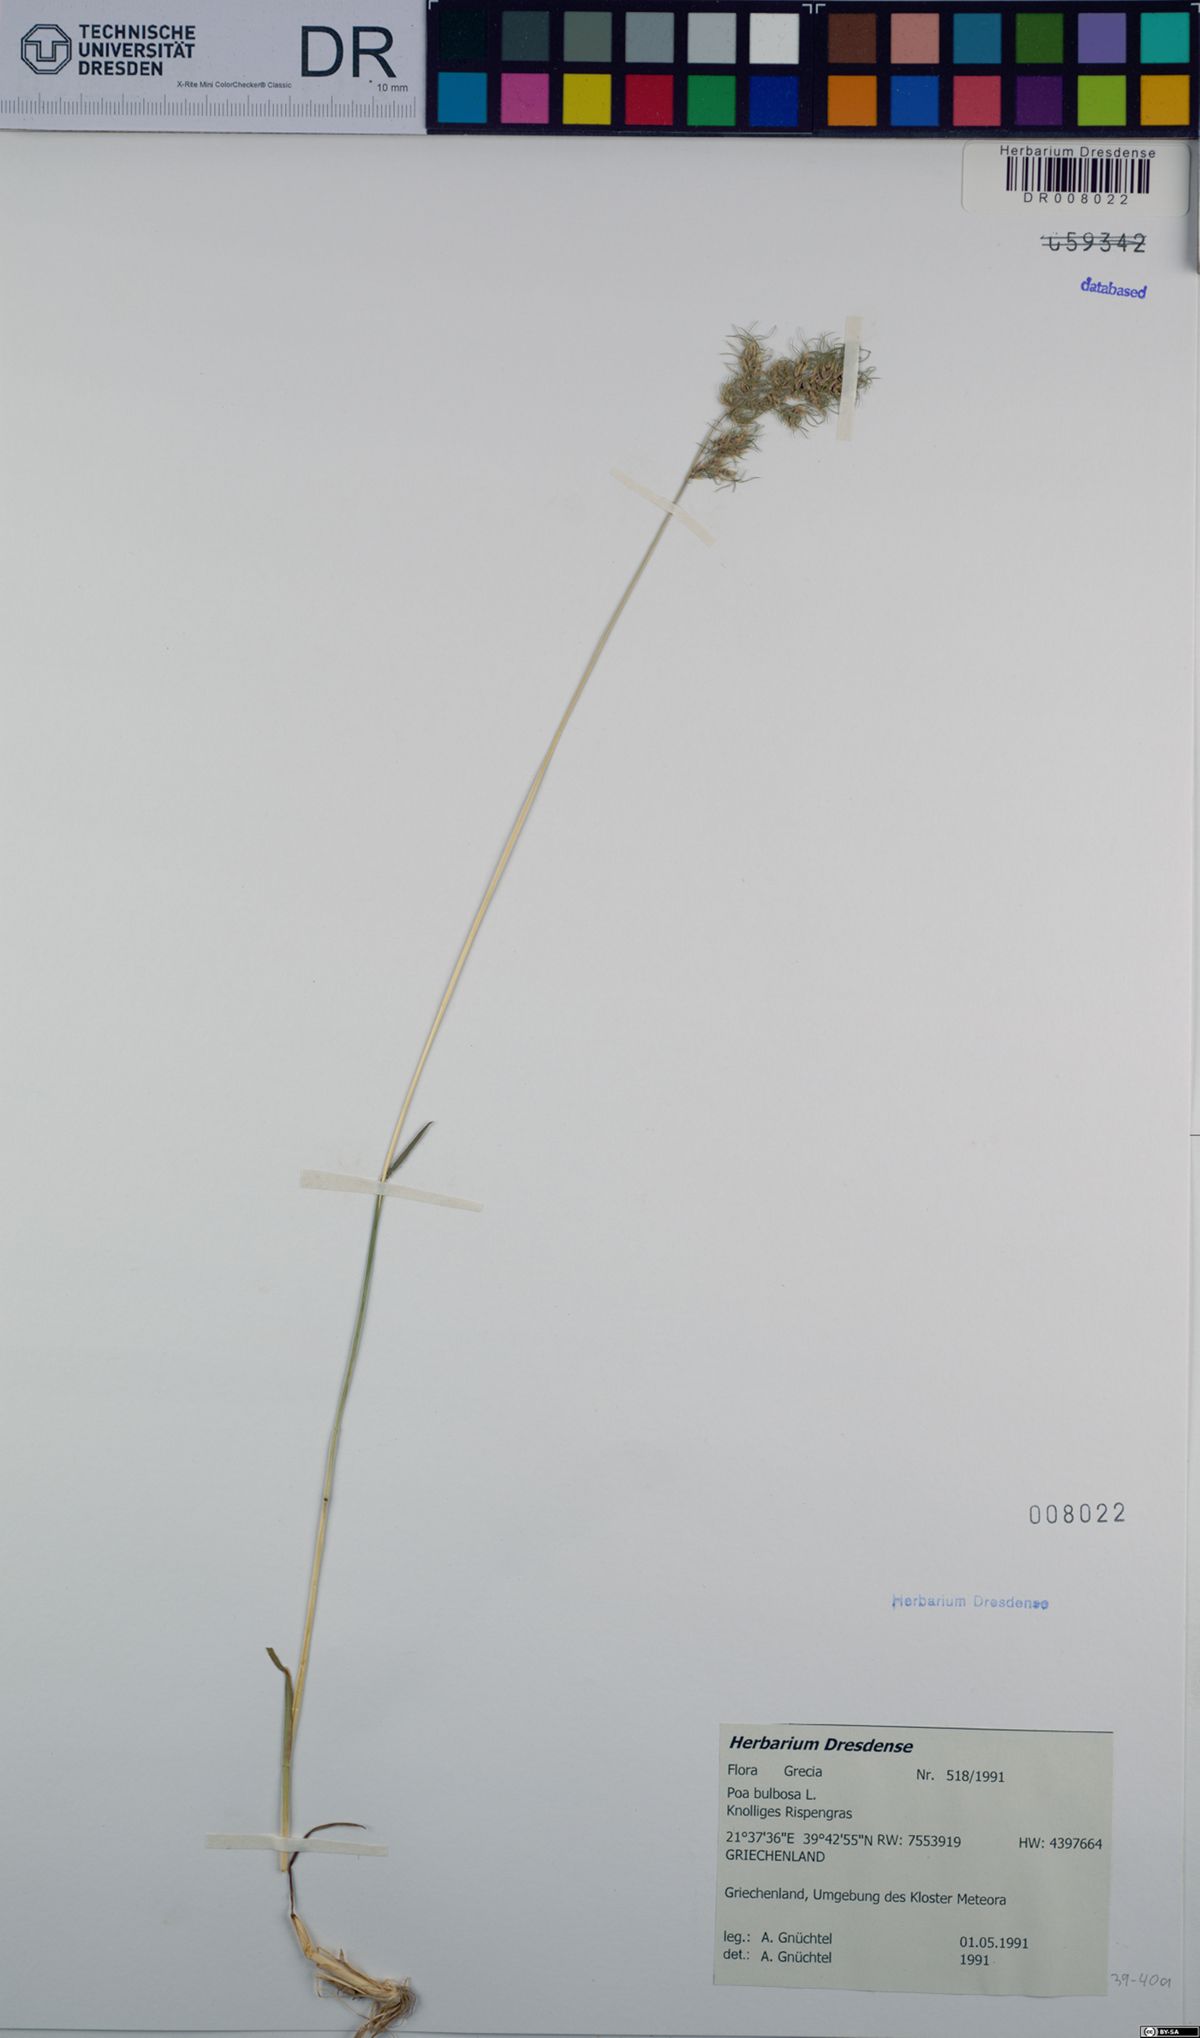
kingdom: Plantae
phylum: Tracheophyta
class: Liliopsida
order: Poales
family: Poaceae
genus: Poa
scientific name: Poa bulbosa
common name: Bulbous bluegrass
